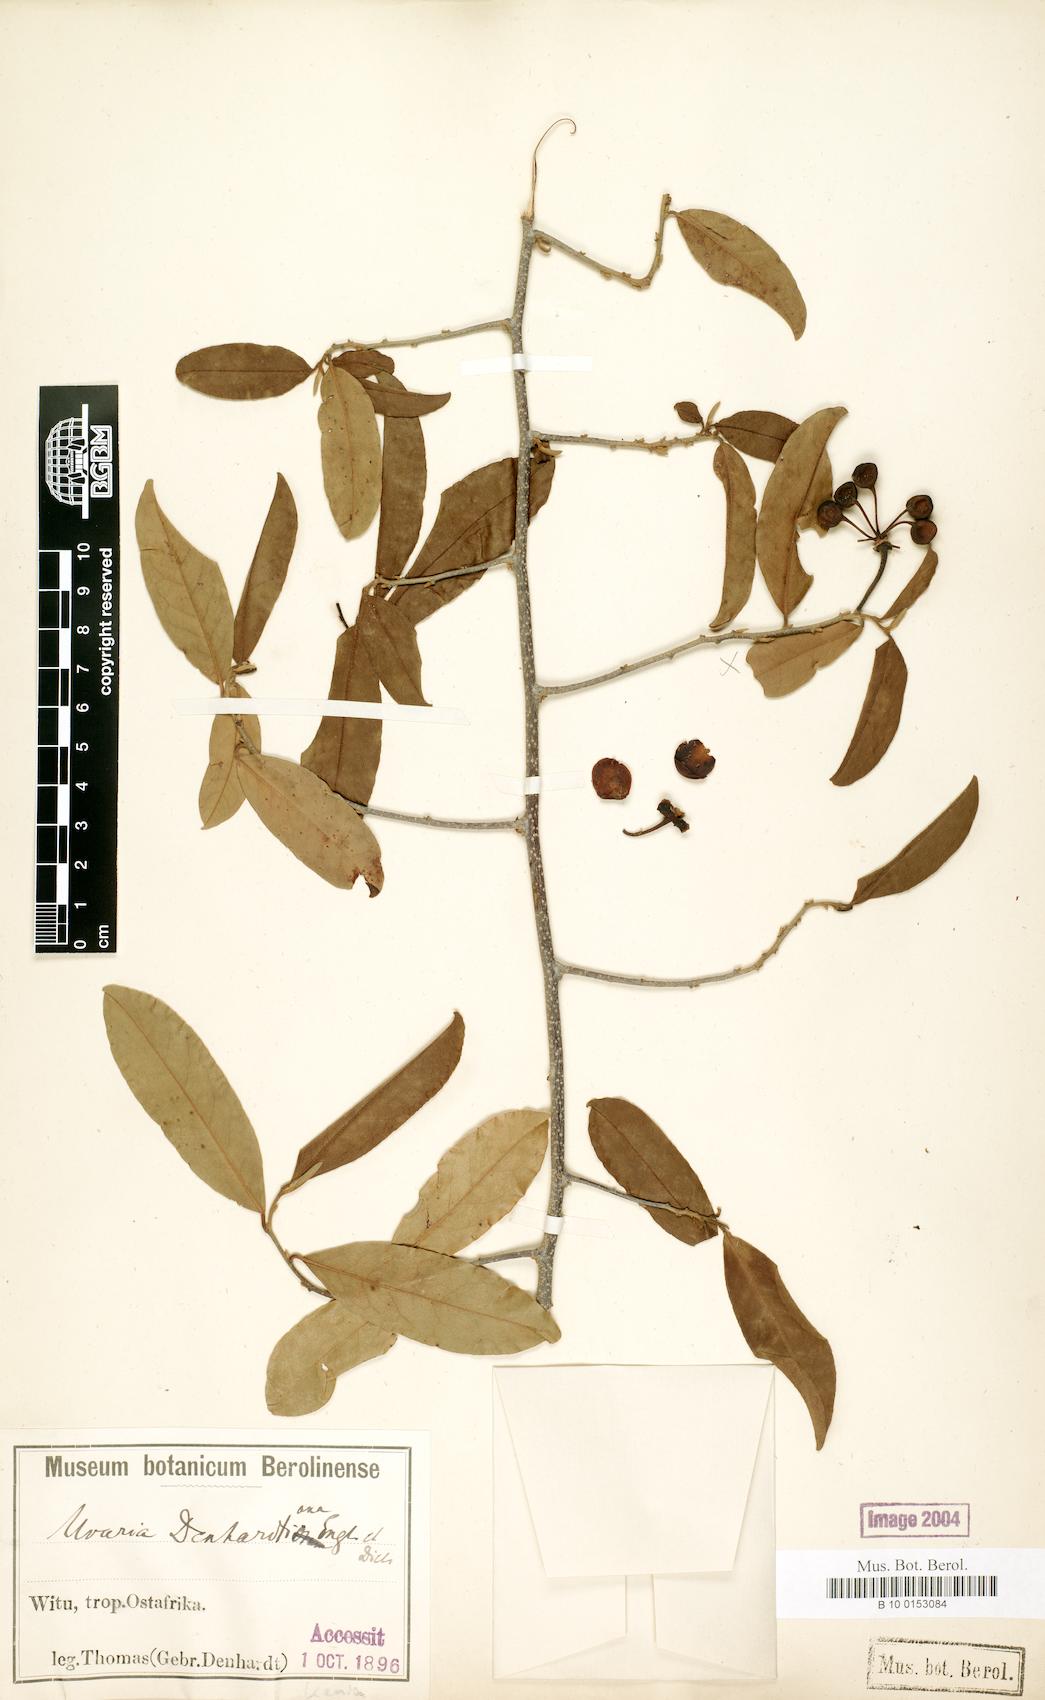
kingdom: Plantae
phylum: Tracheophyta
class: Magnoliopsida
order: Magnoliales
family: Annonaceae
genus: Uvaria
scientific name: Uvaria denhardtiana
